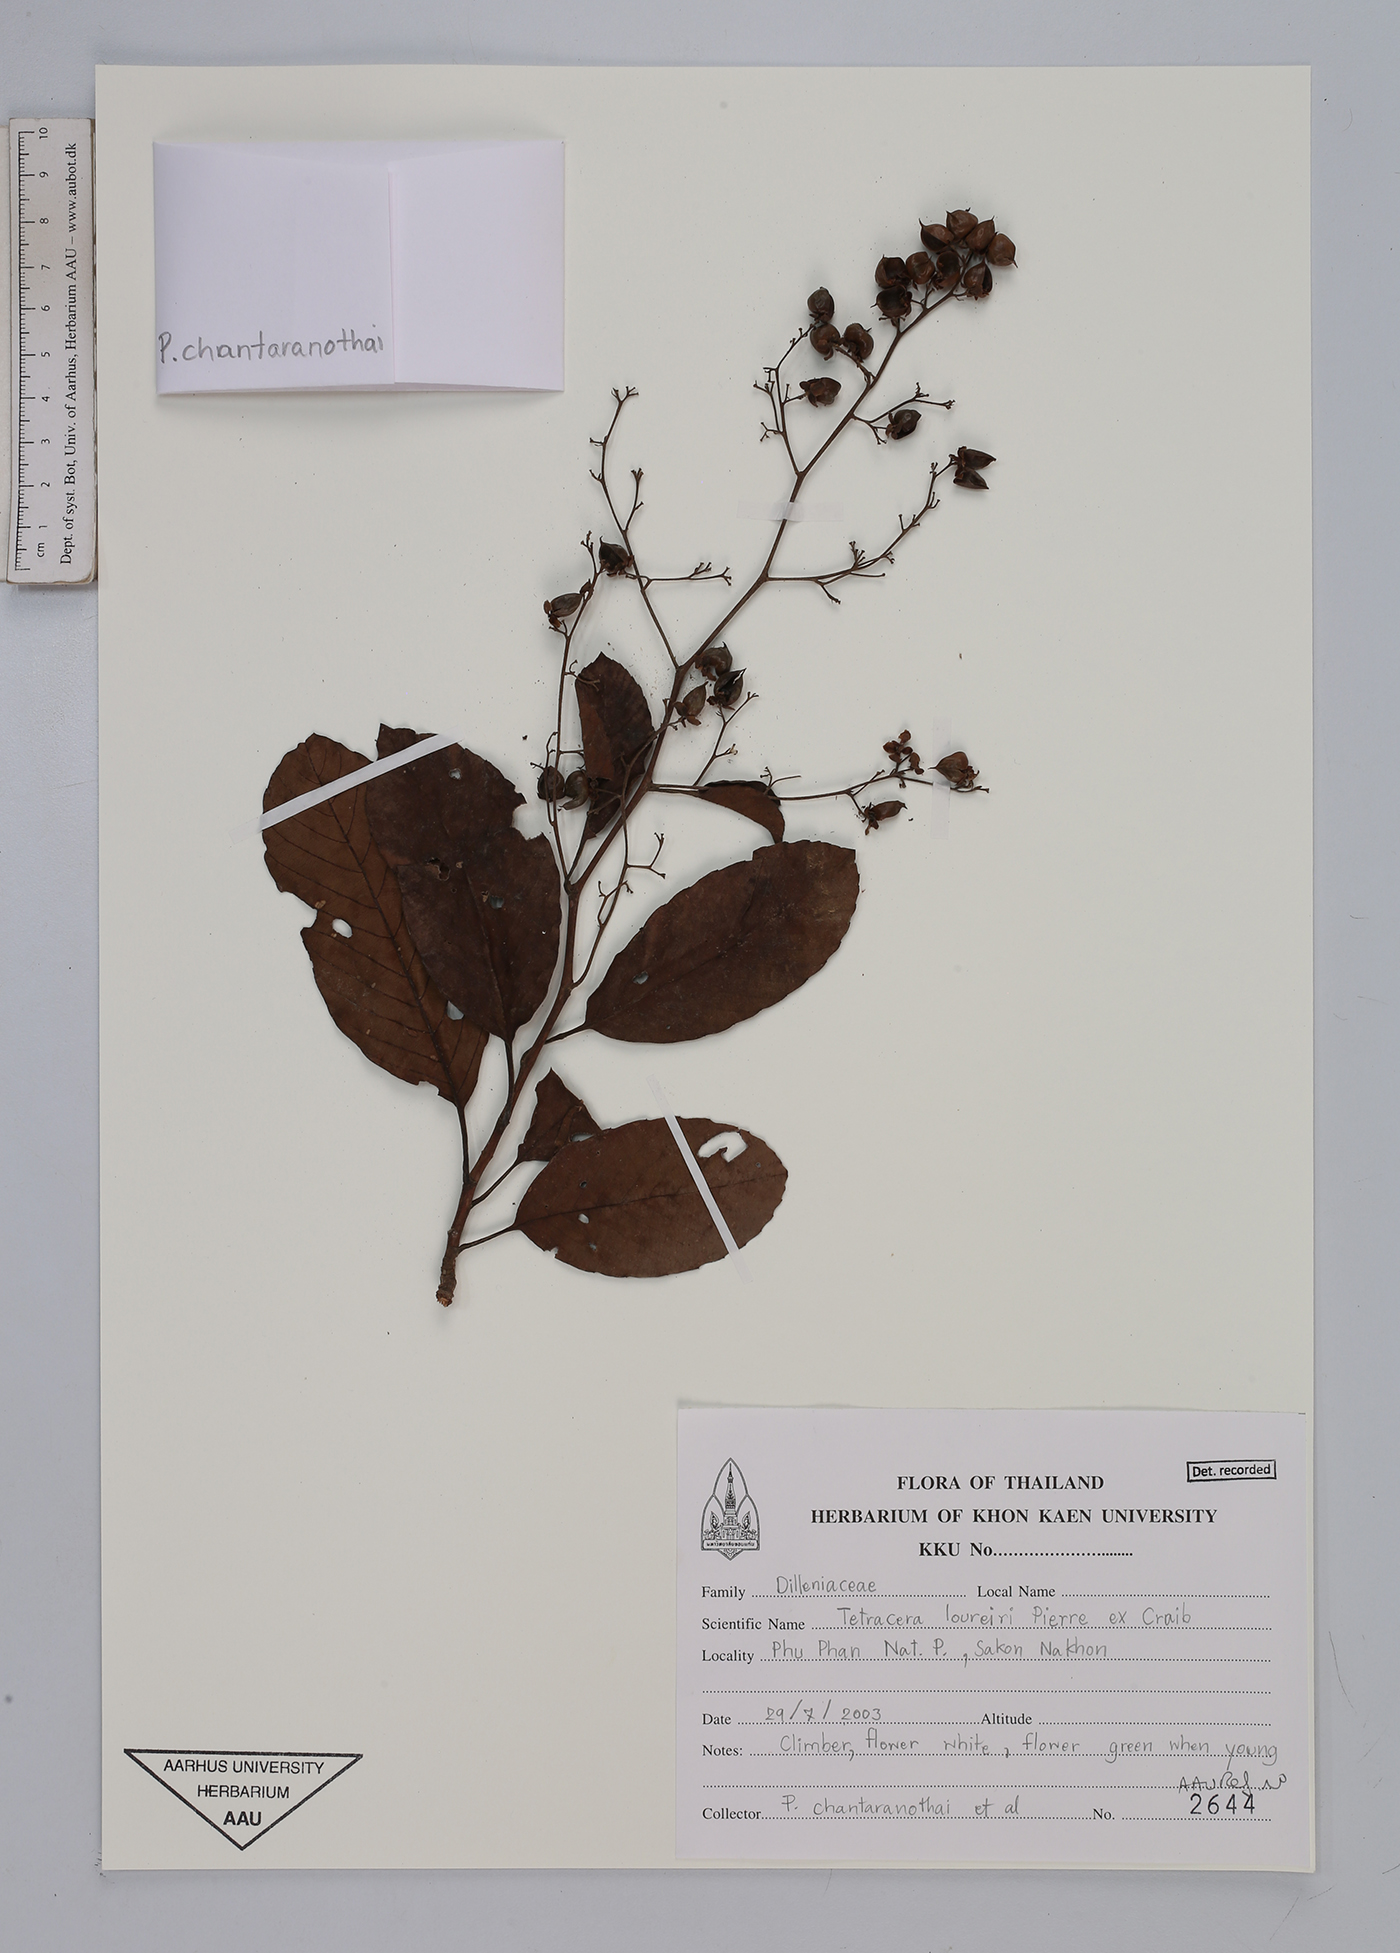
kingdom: Plantae
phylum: Tracheophyta
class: Magnoliopsida
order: Dilleniales
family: Dilleniaceae
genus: Tetracera
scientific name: Tetracera loureiri
